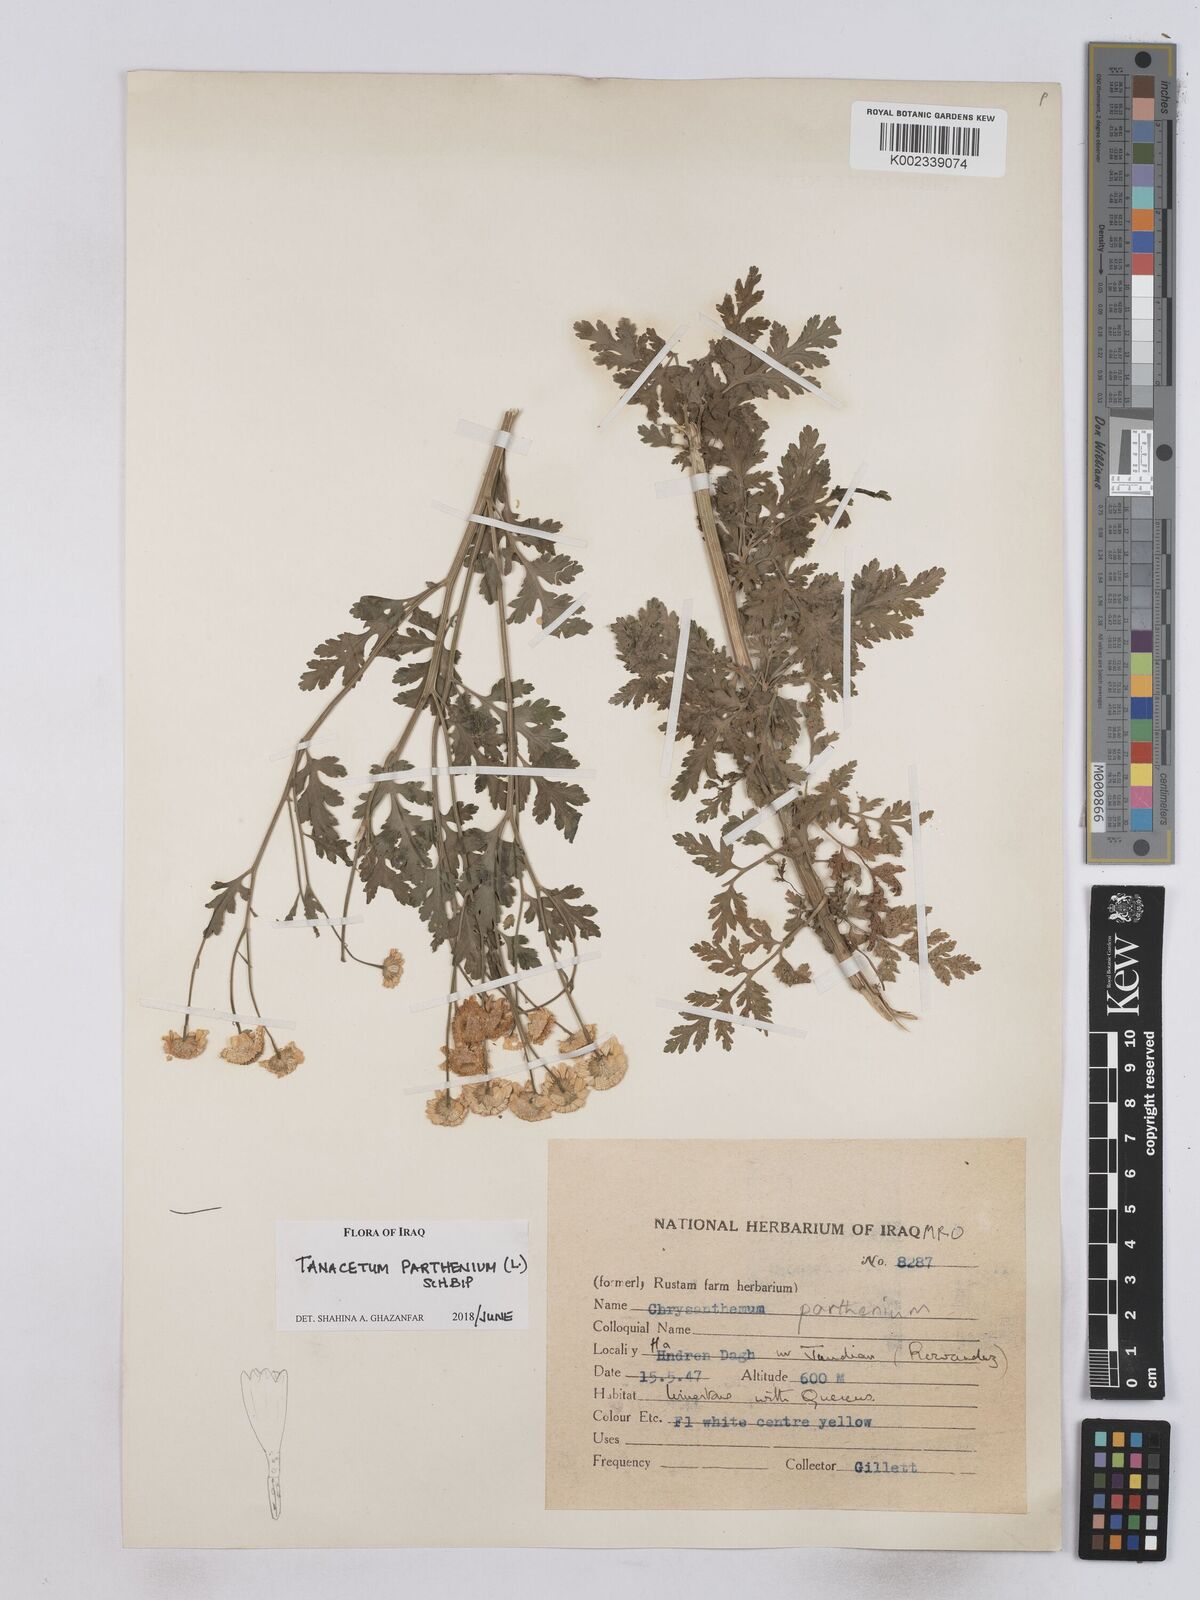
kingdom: Plantae
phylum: Tracheophyta
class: Magnoliopsida
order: Asterales
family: Asteraceae
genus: Tanacetum
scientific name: Tanacetum parthenium
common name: Feverfew
